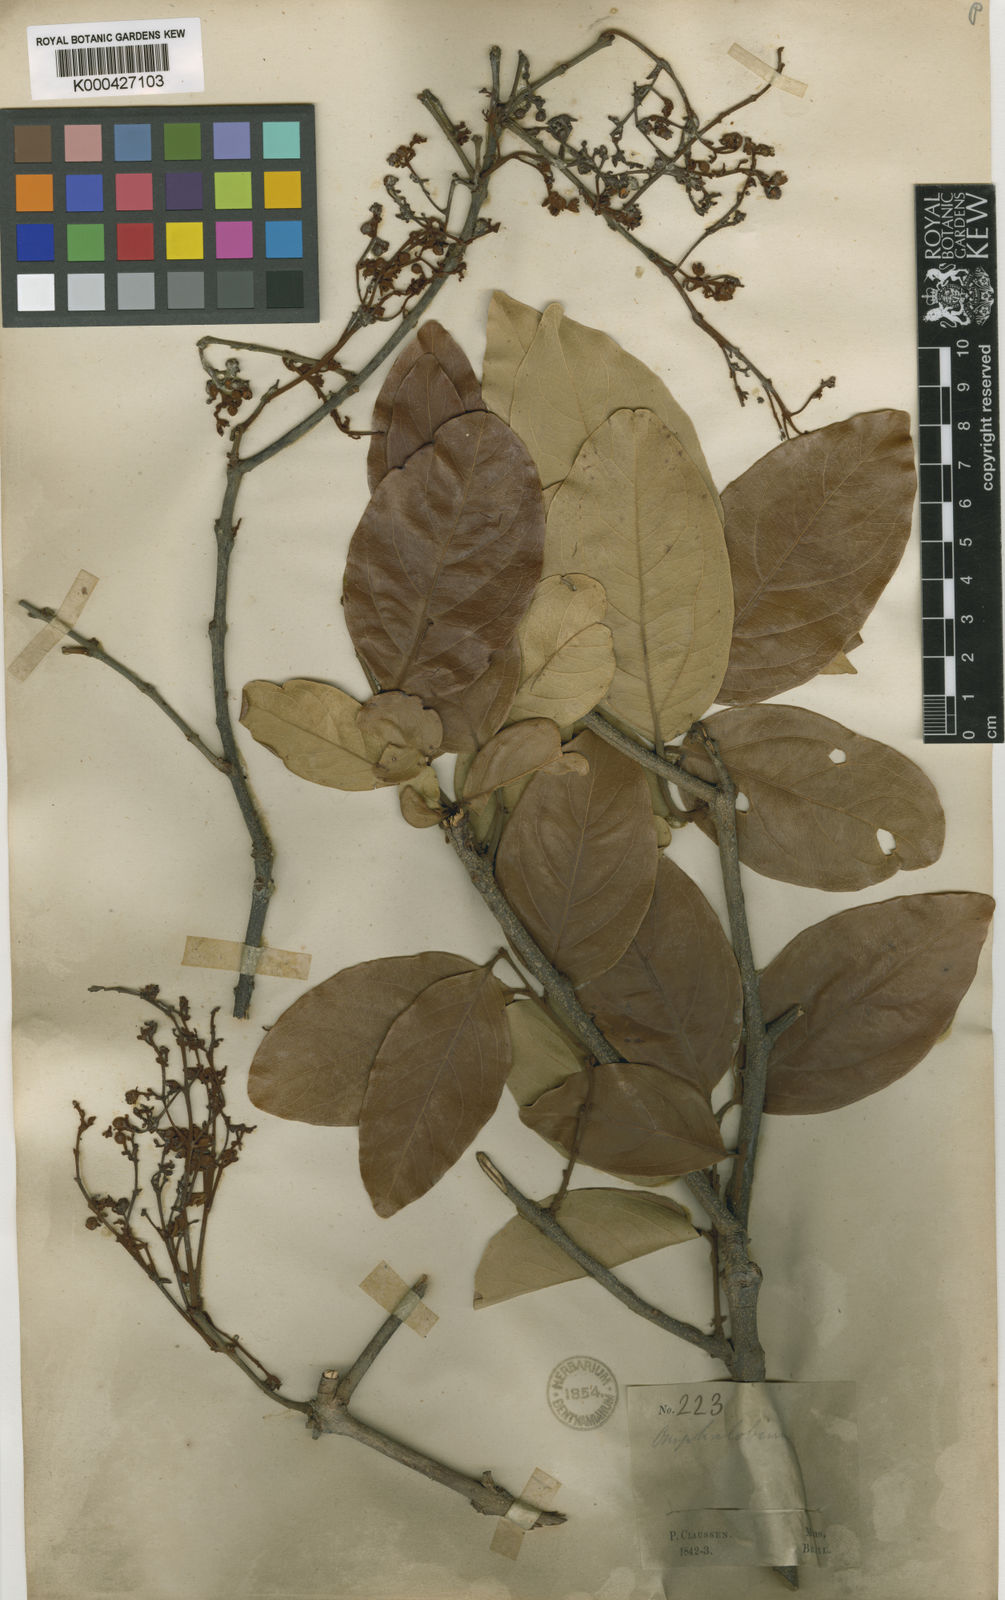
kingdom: Plantae
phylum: Tracheophyta
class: Magnoliopsida
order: Malpighiales
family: Malpighiaceae
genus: Heteropterys
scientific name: Heteropterys xanthophylla
